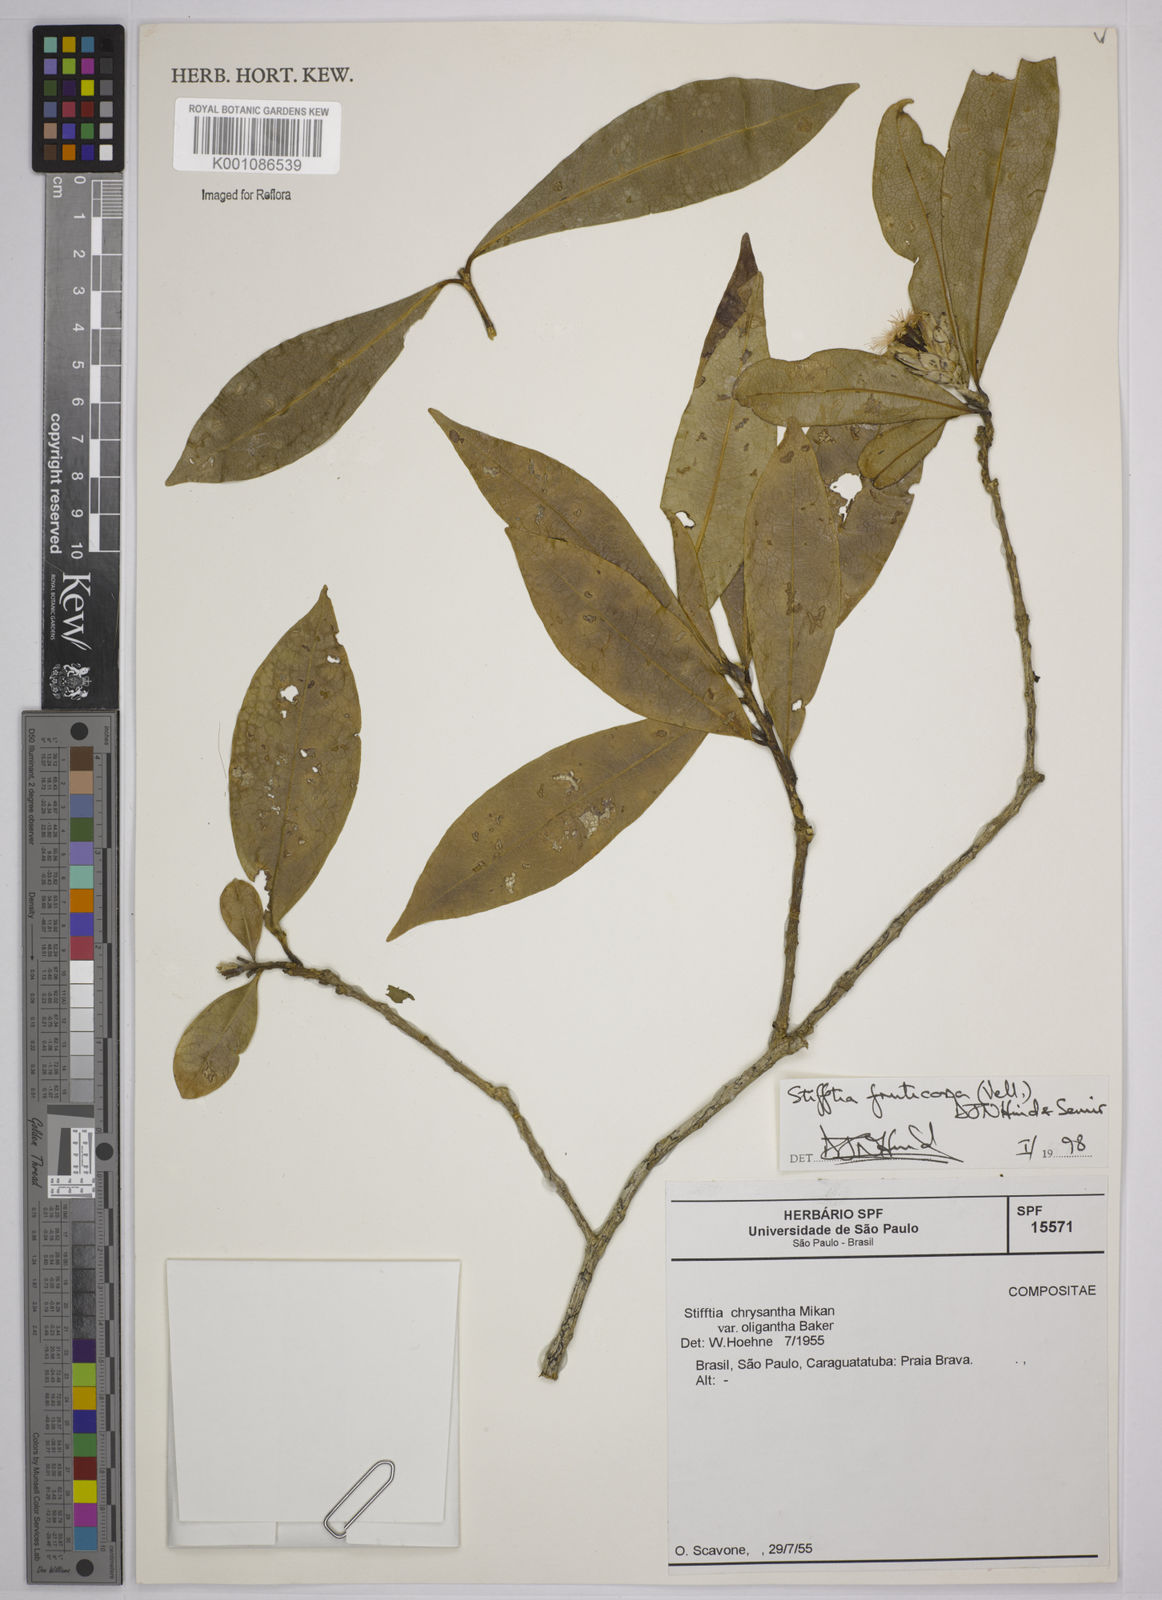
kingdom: Plantae
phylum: Tracheophyta
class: Magnoliopsida
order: Asterales
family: Asteraceae
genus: Stifftia
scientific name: Stifftia fruticosa
